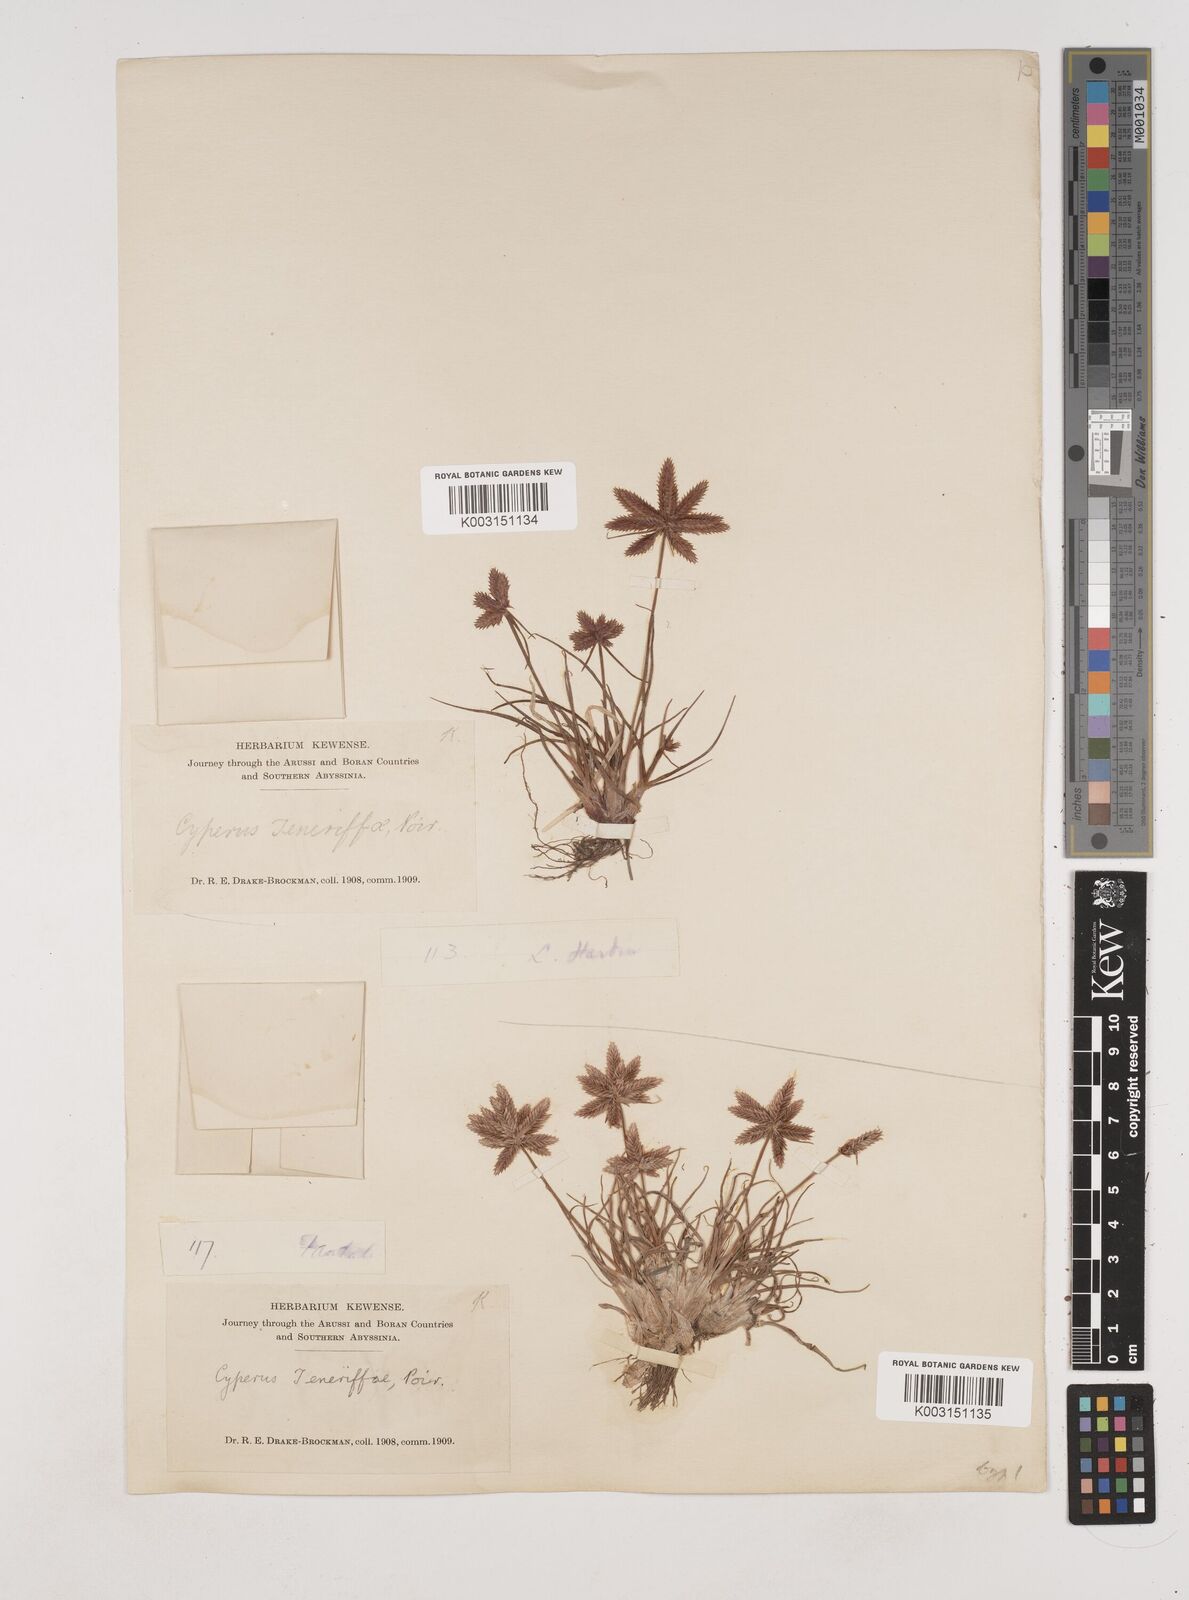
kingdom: Plantae
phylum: Tracheophyta
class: Liliopsida
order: Poales
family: Cyperaceae
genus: Cyperus
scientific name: Cyperus rubicundus
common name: Coco-grass
